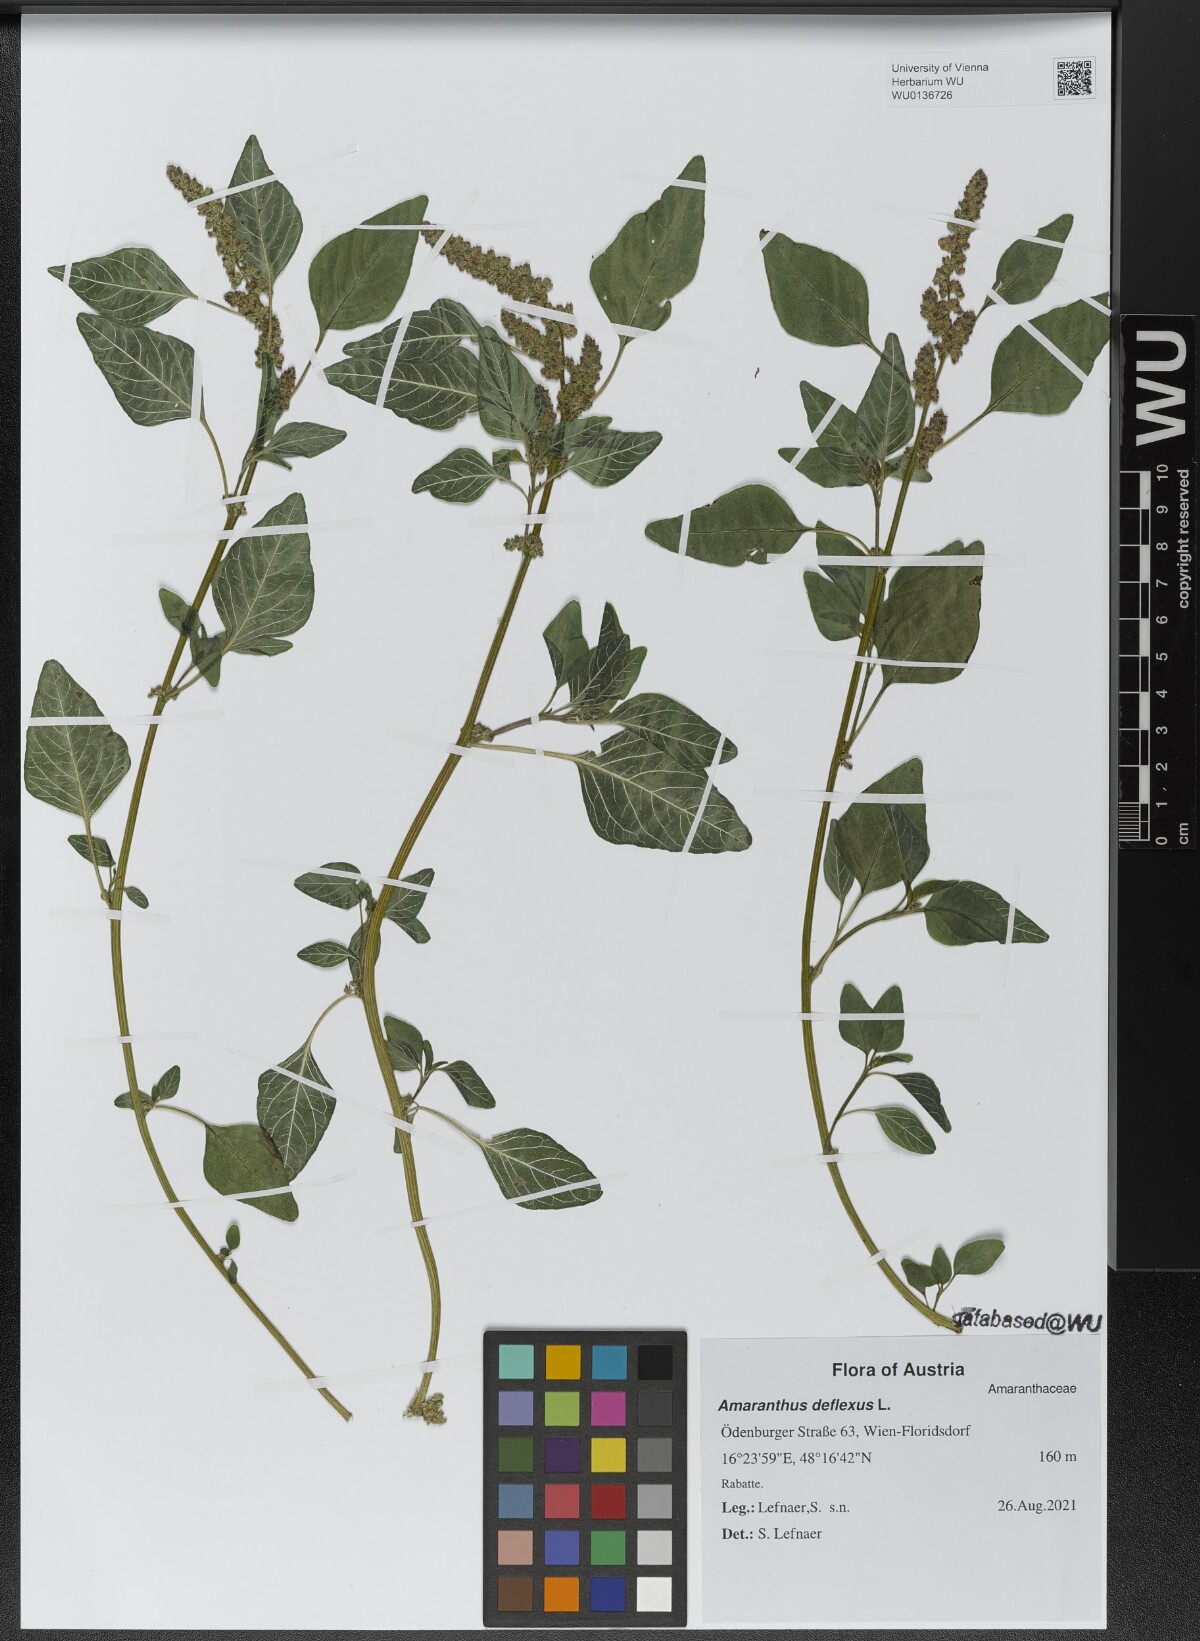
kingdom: Plantae
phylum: Tracheophyta
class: Magnoliopsida
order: Caryophyllales
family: Amaranthaceae
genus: Amaranthus
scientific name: Amaranthus deflexus
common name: Perennial pigweed
